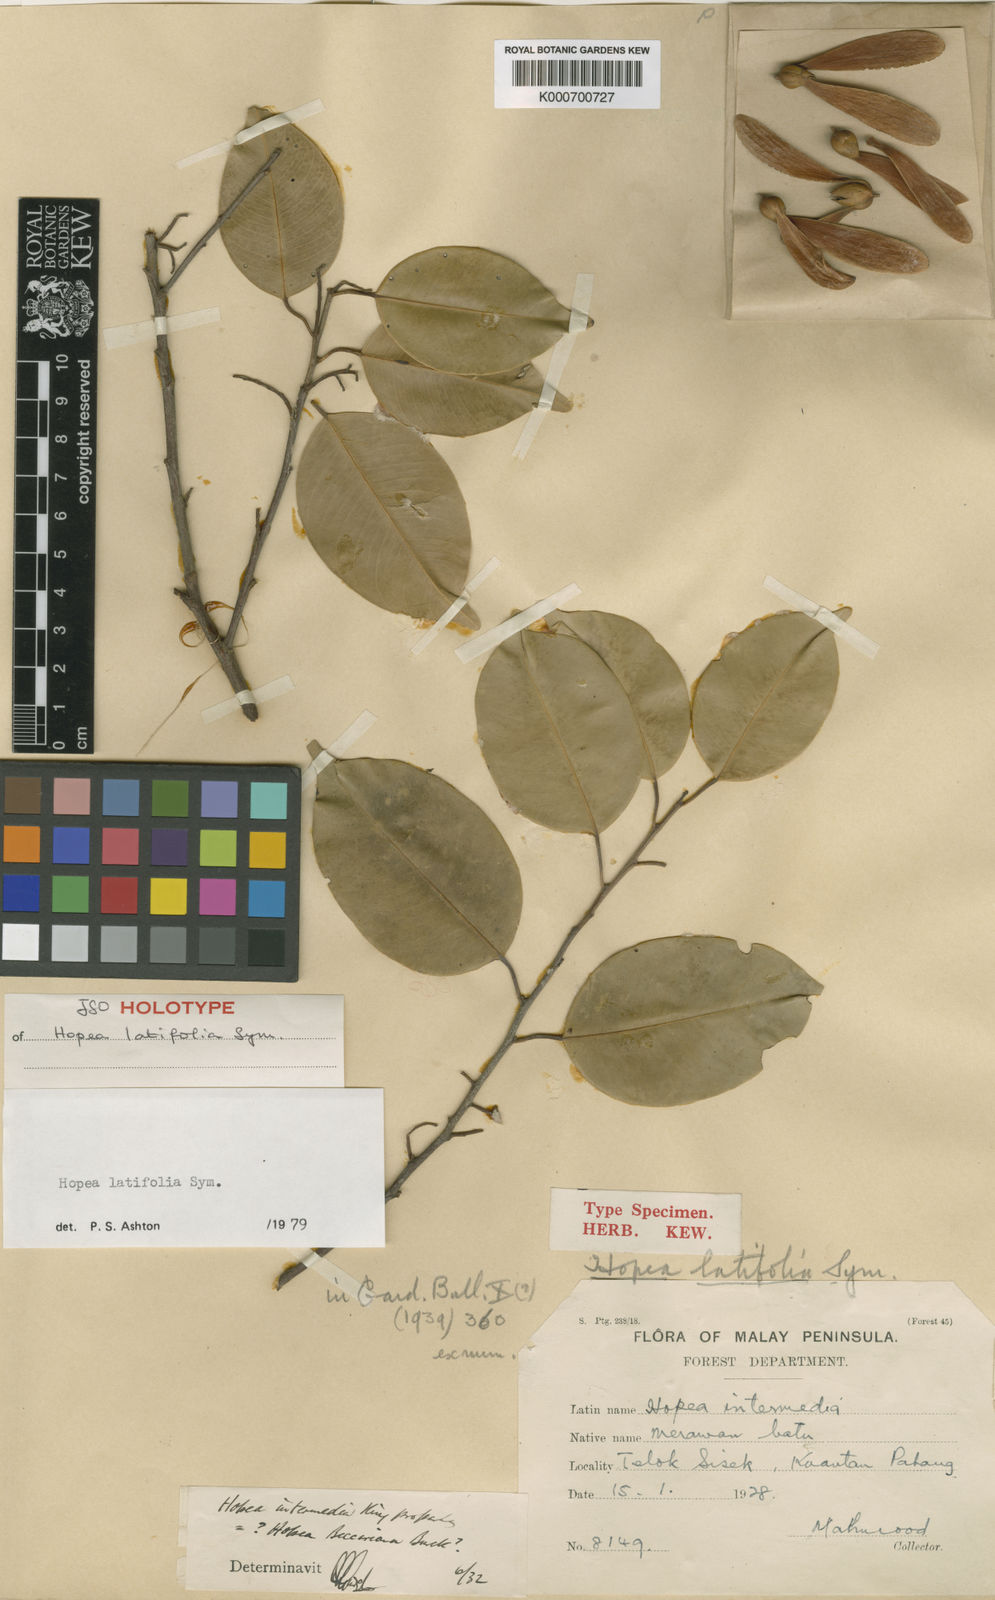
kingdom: Plantae
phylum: Tracheophyta
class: Magnoliopsida
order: Malvales
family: Dipterocarpaceae
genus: Hopea
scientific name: Hopea latifolia
